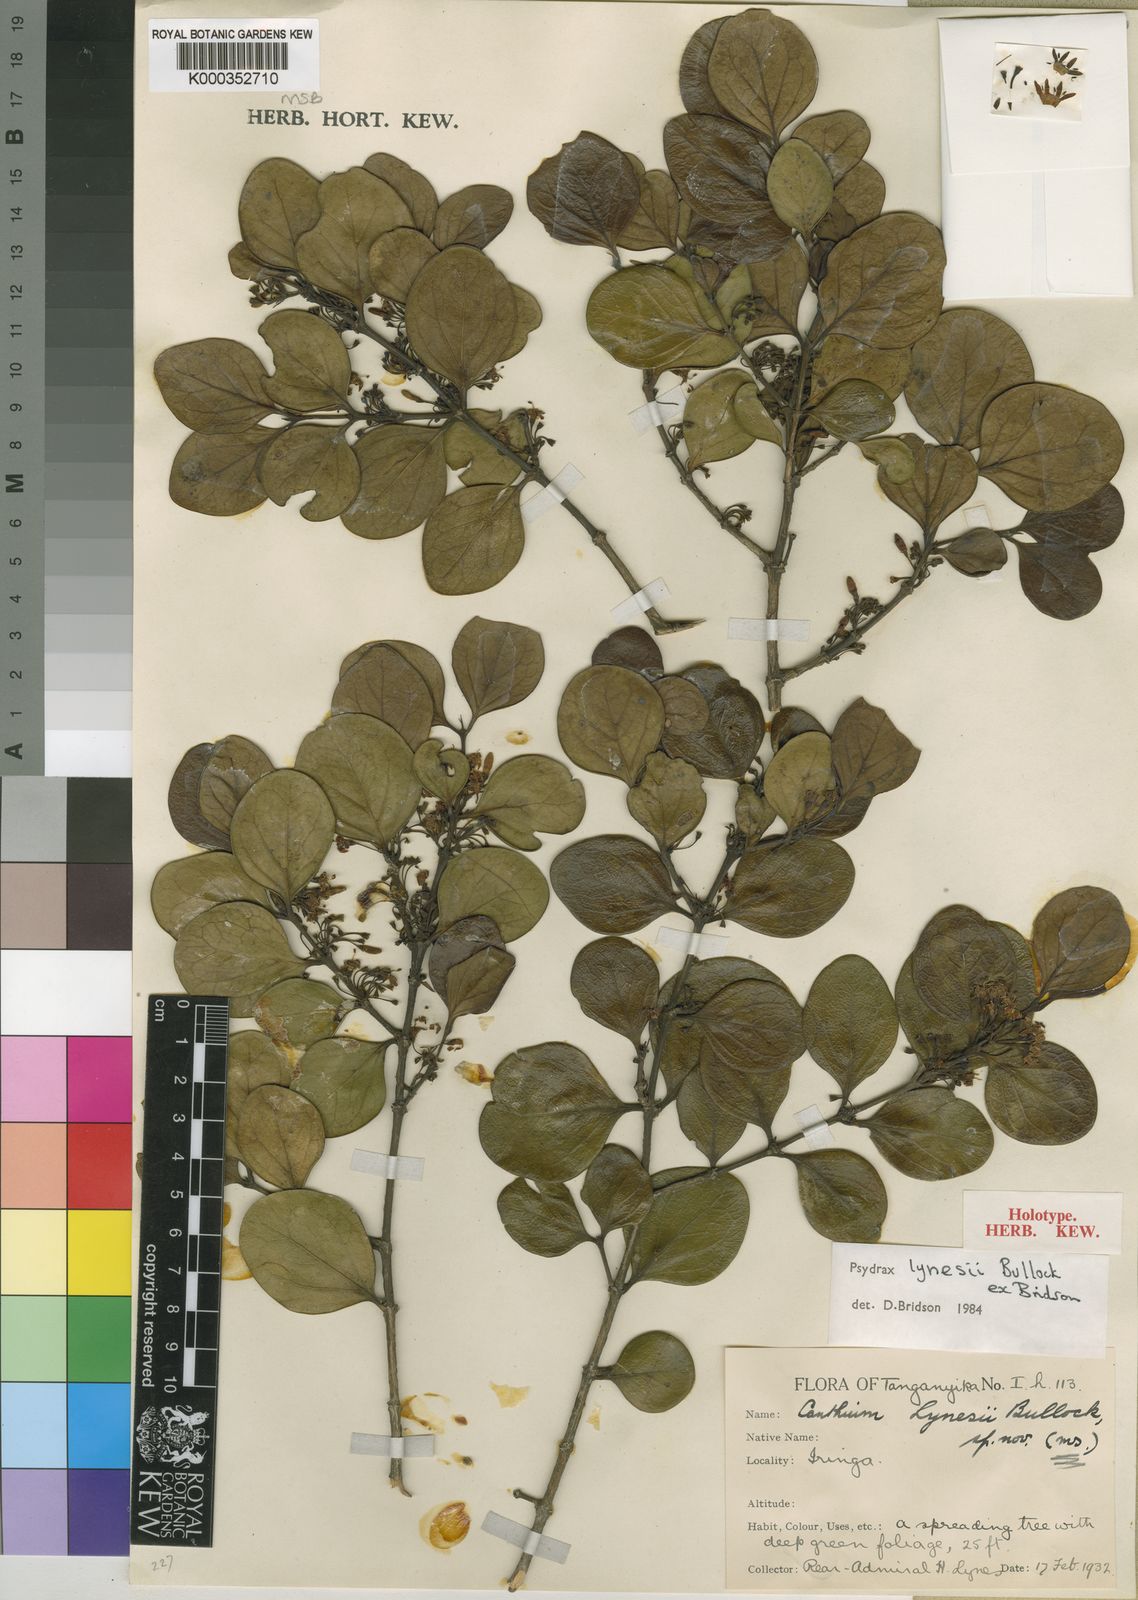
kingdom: Plantae
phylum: Tracheophyta
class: Magnoliopsida
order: Gentianales
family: Rubiaceae
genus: Psydrax
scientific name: Psydrax lynesii
